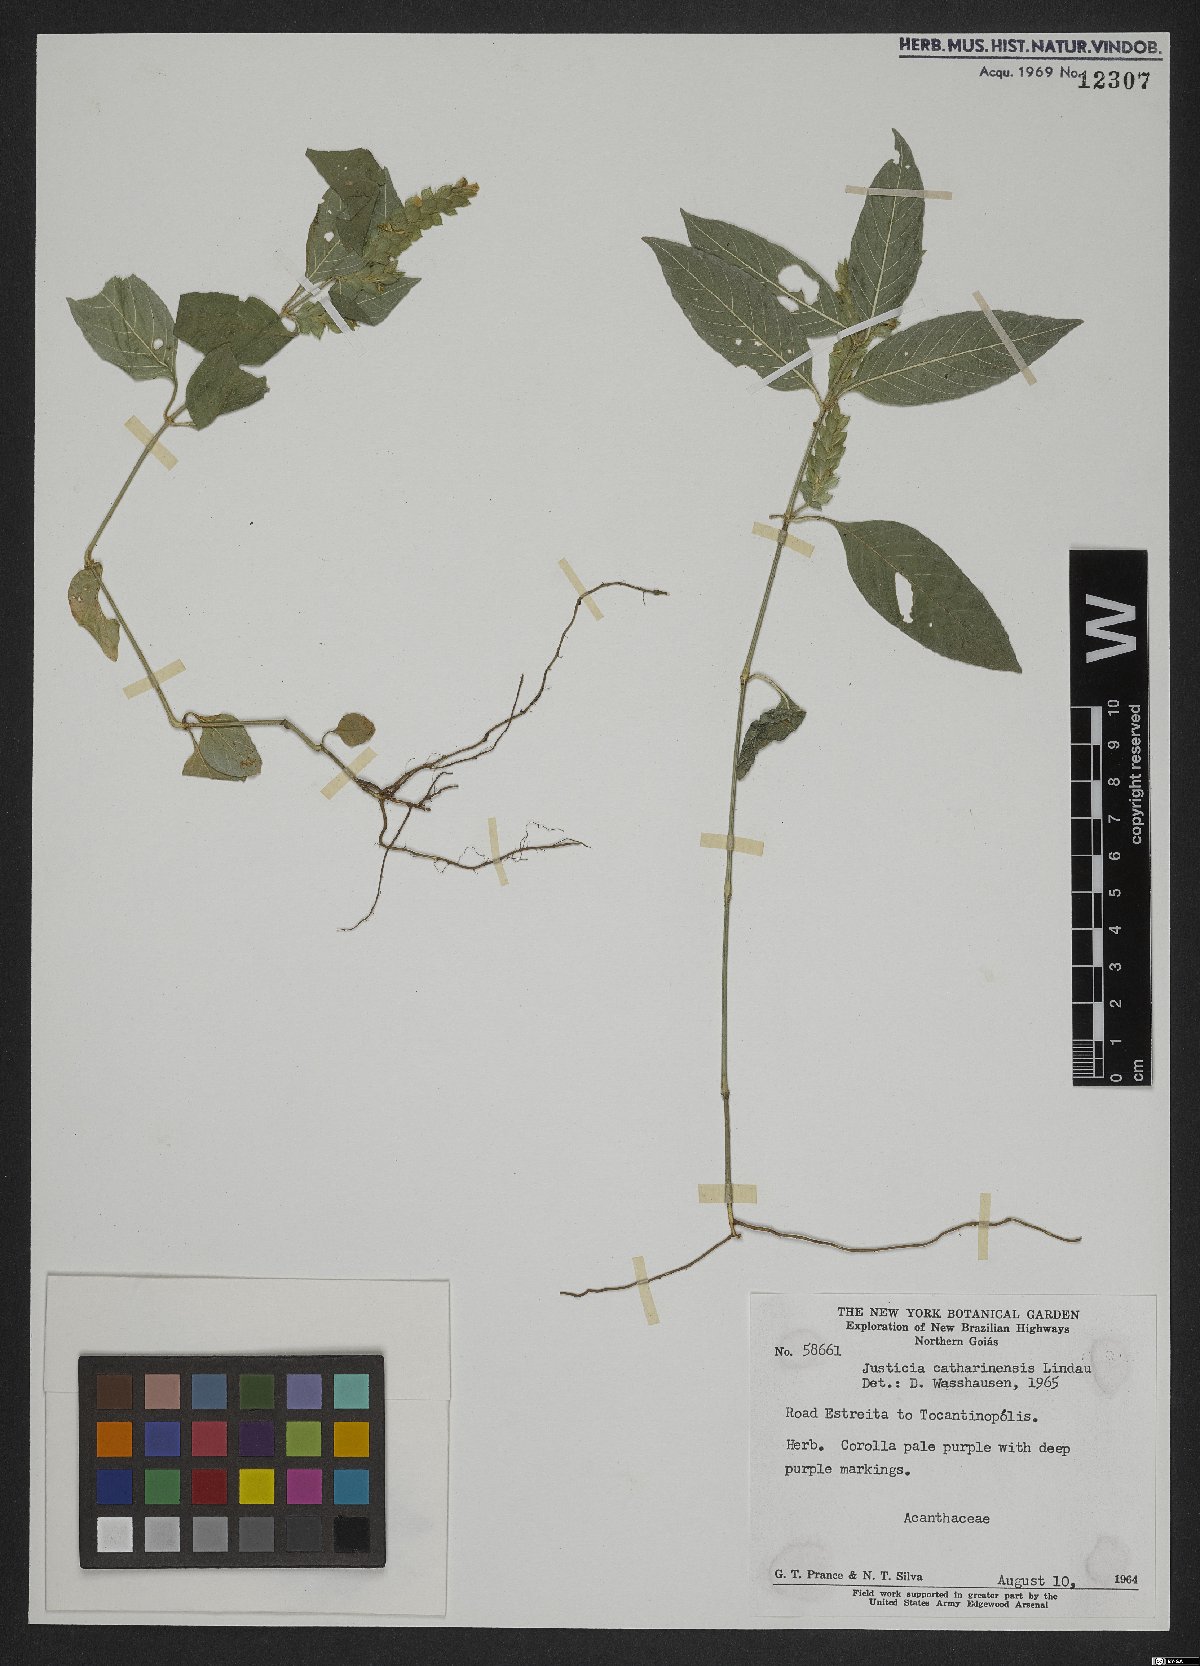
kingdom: Plantae
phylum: Tracheophyta
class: Magnoliopsida
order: Lamiales
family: Acanthaceae
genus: Justicia
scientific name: Justicia catharinensis
